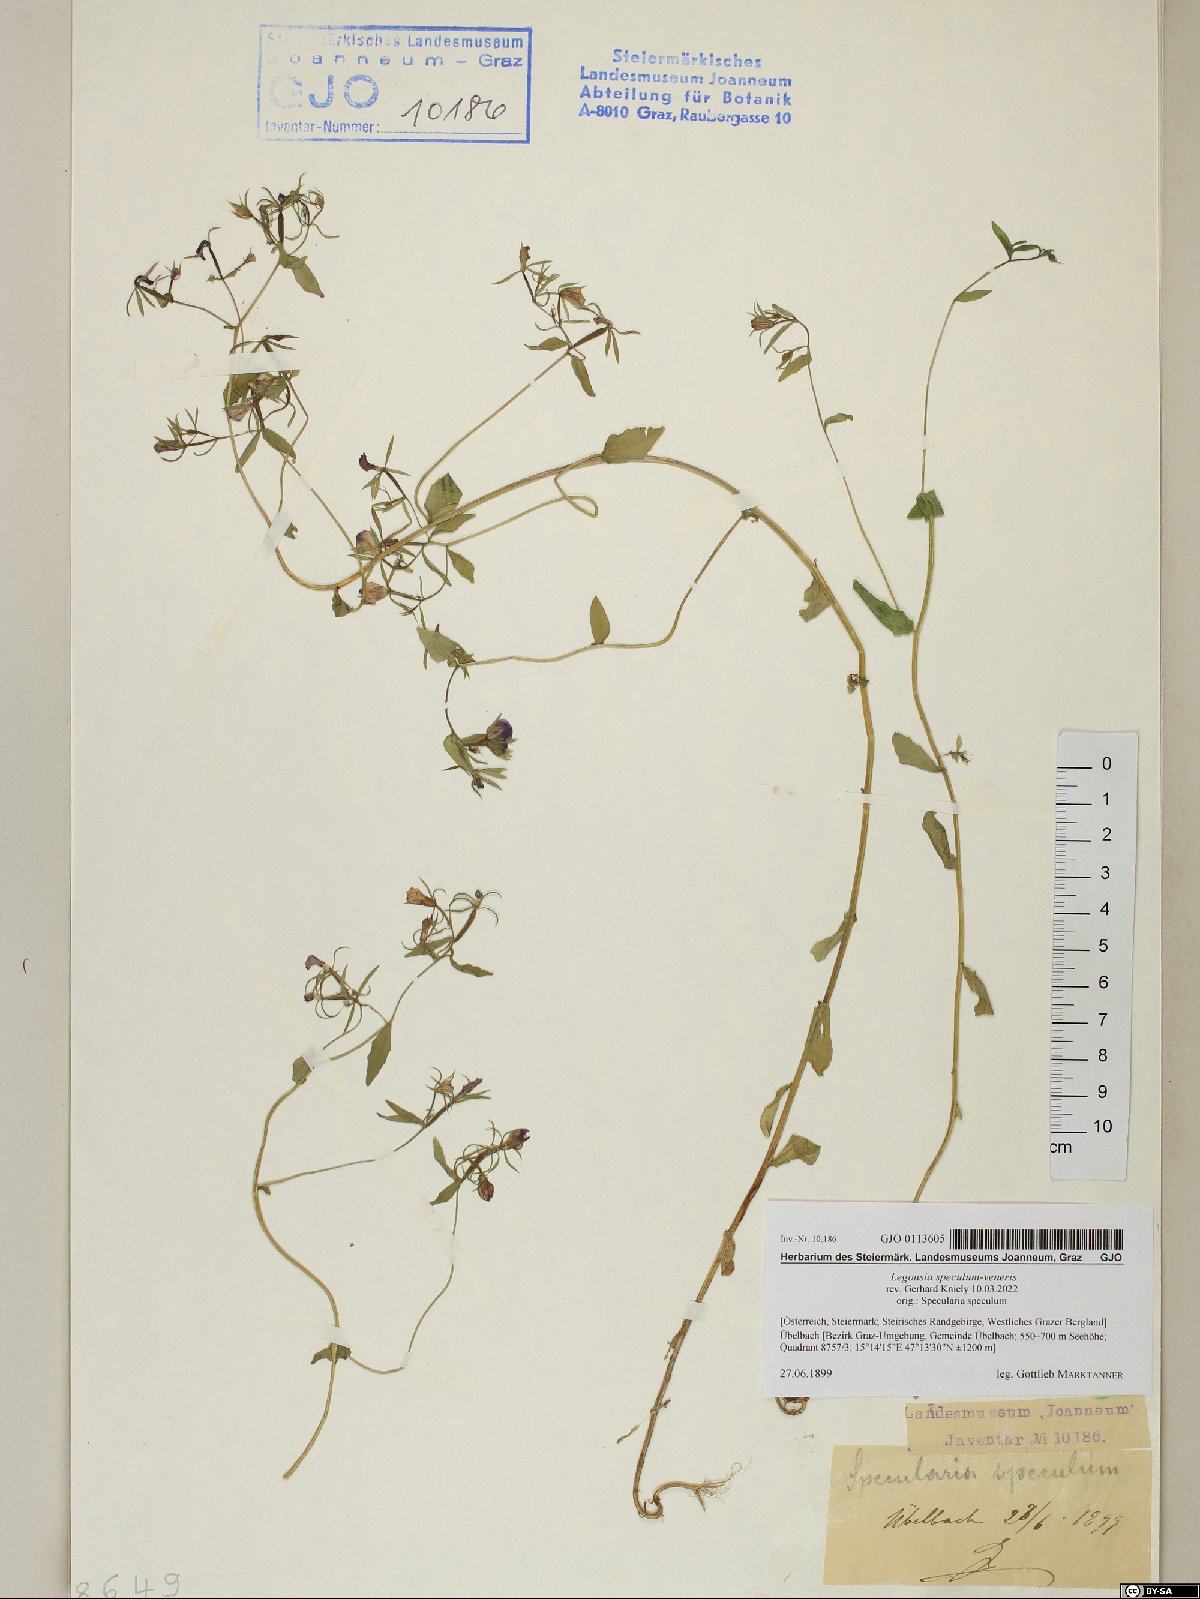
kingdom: Plantae
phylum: Tracheophyta
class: Magnoliopsida
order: Asterales
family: Campanulaceae
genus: Legousia
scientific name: Legousia speculum-veneris
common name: Large venus's-looking-glass
